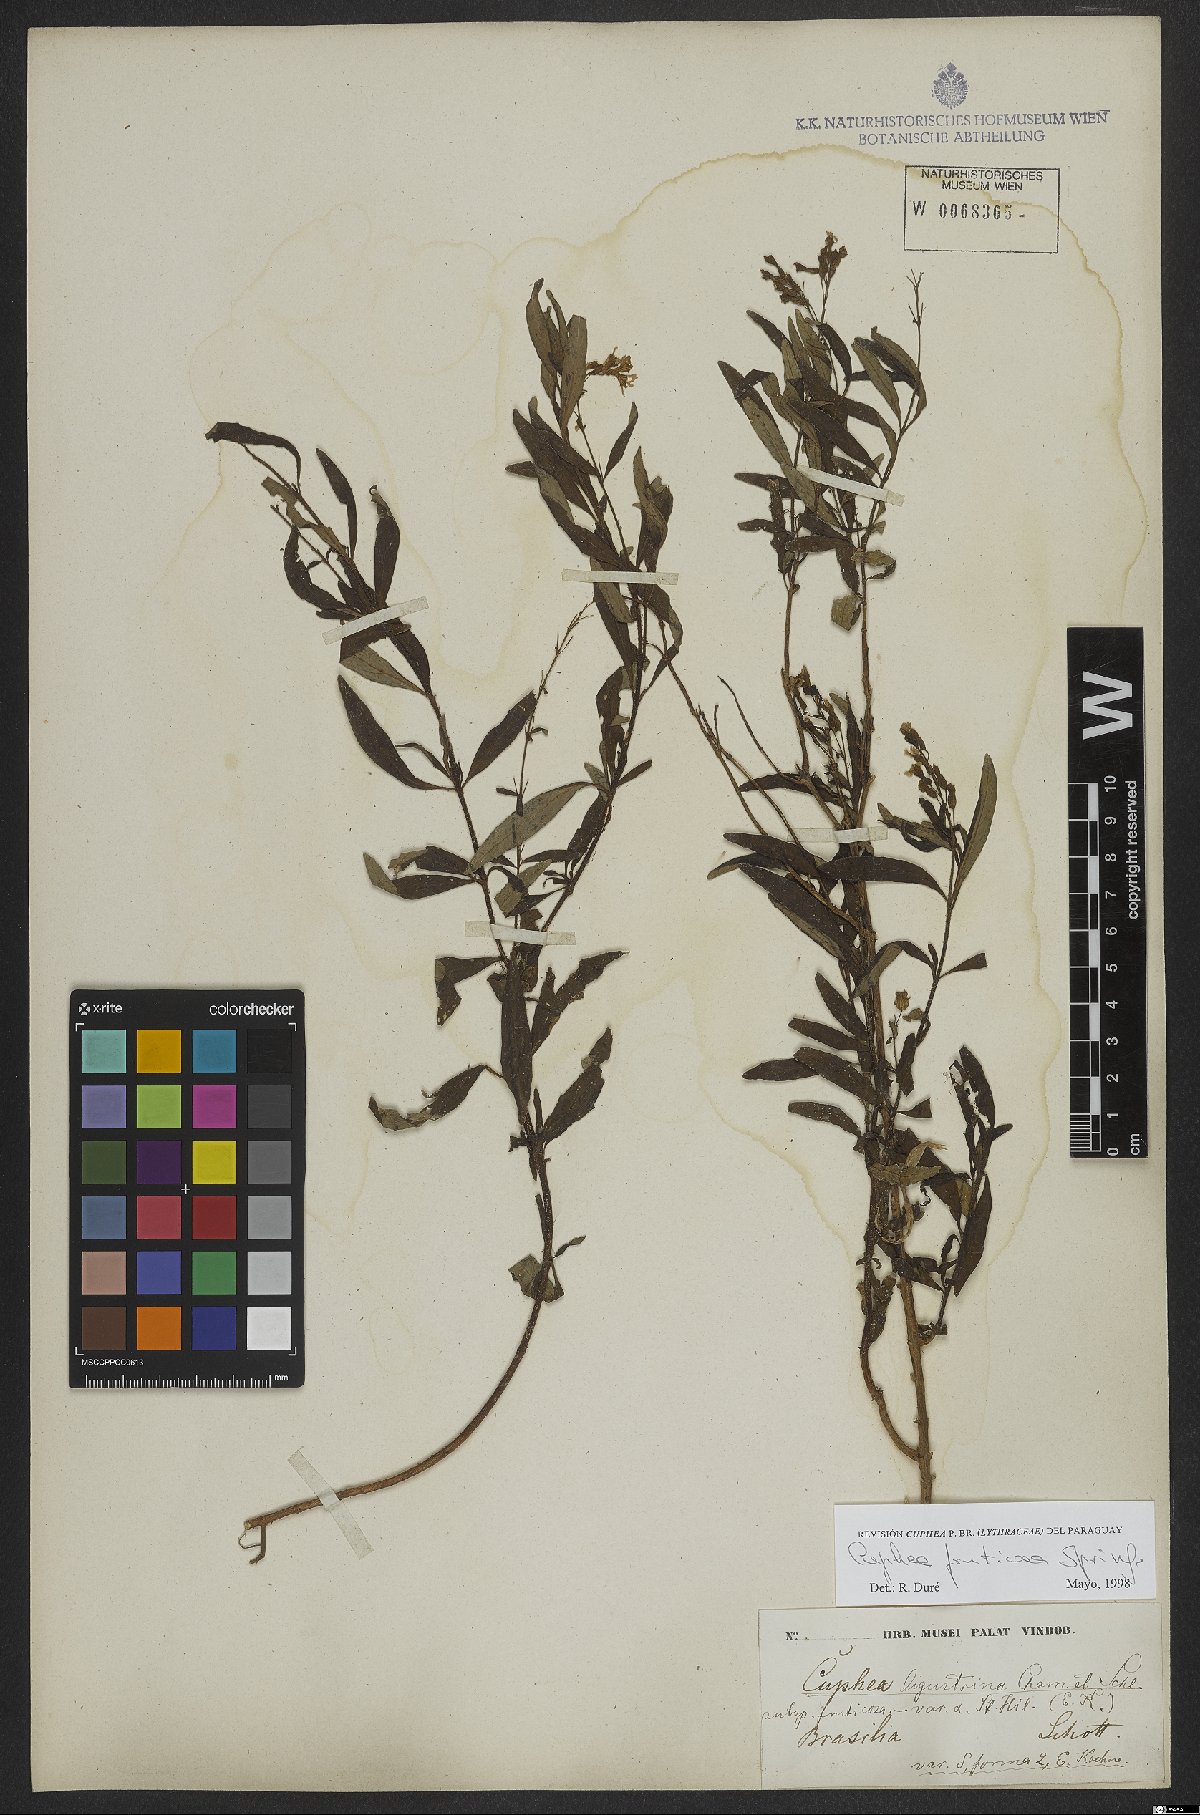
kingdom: Plantae
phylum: Tracheophyta
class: Magnoliopsida
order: Myrtales
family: Lythraceae
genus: Cuphea
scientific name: Cuphea fruticosa
